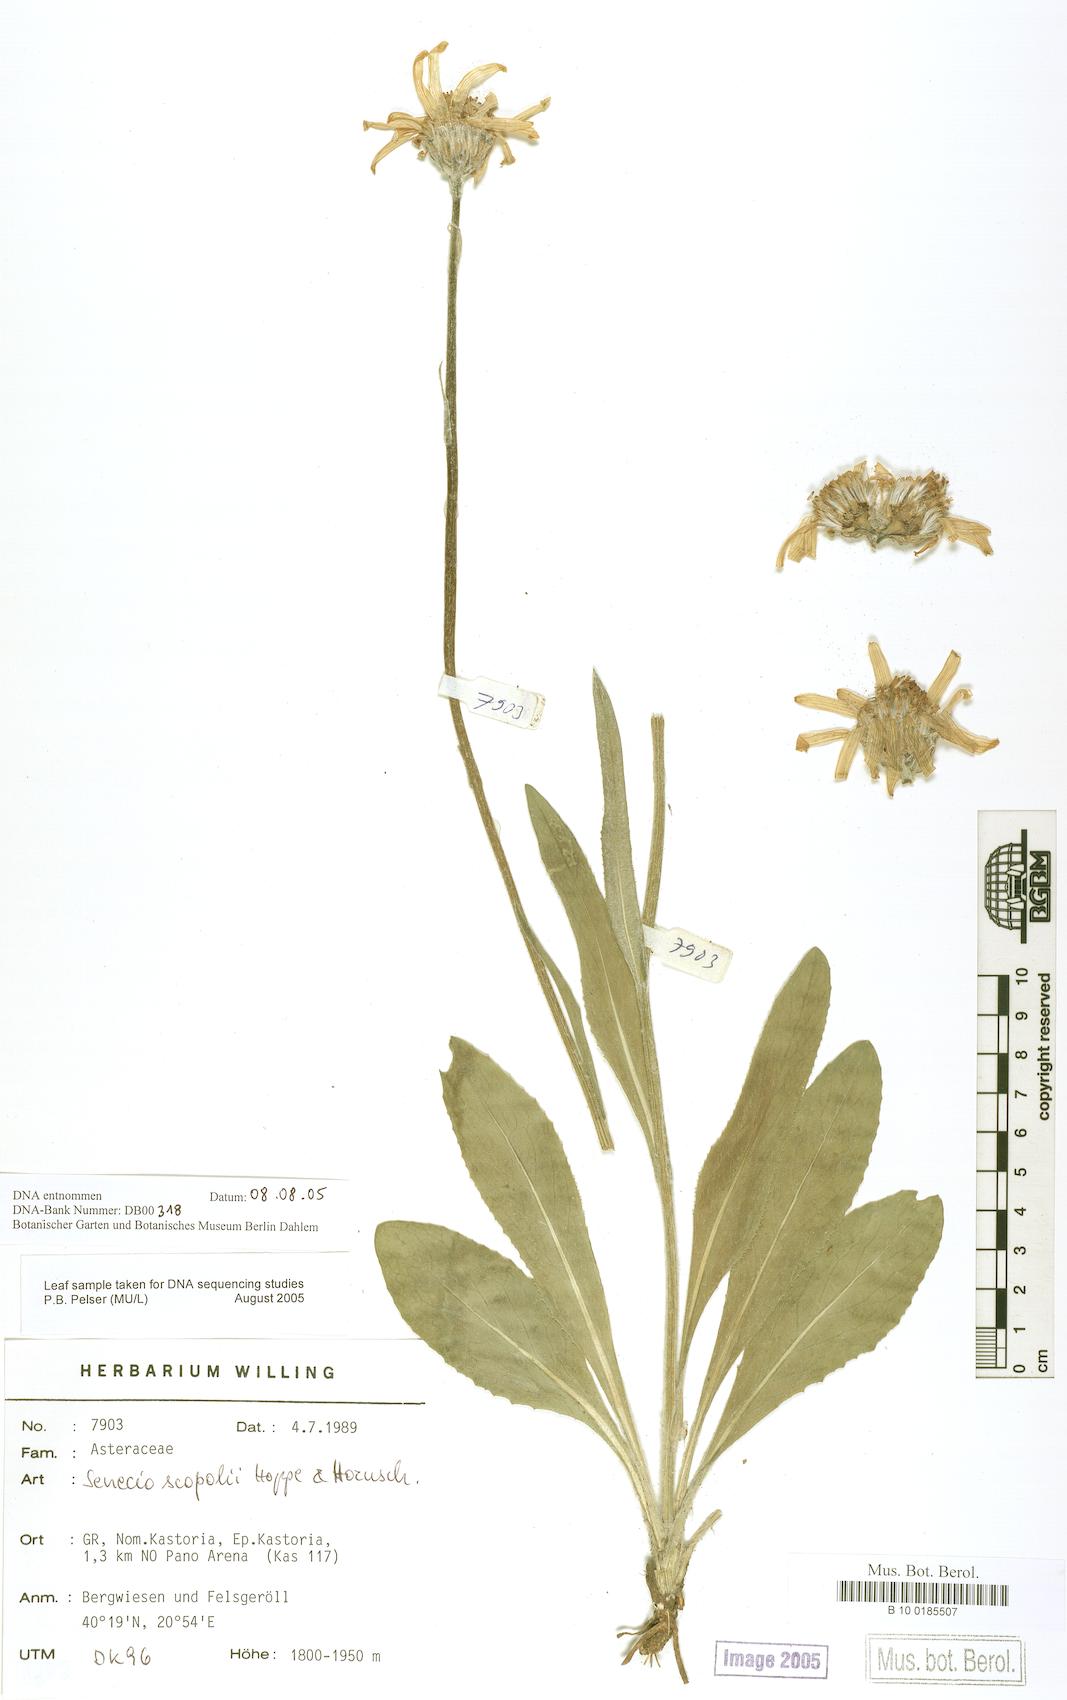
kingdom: Plantae
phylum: Tracheophyta
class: Magnoliopsida
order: Asterales
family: Asteraceae
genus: Senecio
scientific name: Senecio scopolii
